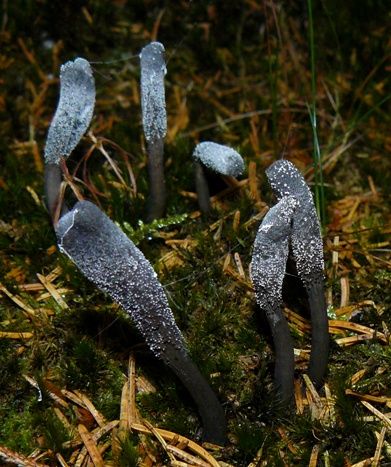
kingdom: Fungi
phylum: Ascomycota
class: Sordariomycetes
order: Hypocreales
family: Ophiocordycipitaceae
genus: Tolypocladium
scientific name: Tolypocladium ophioglossoides
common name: slank snyltekølle
